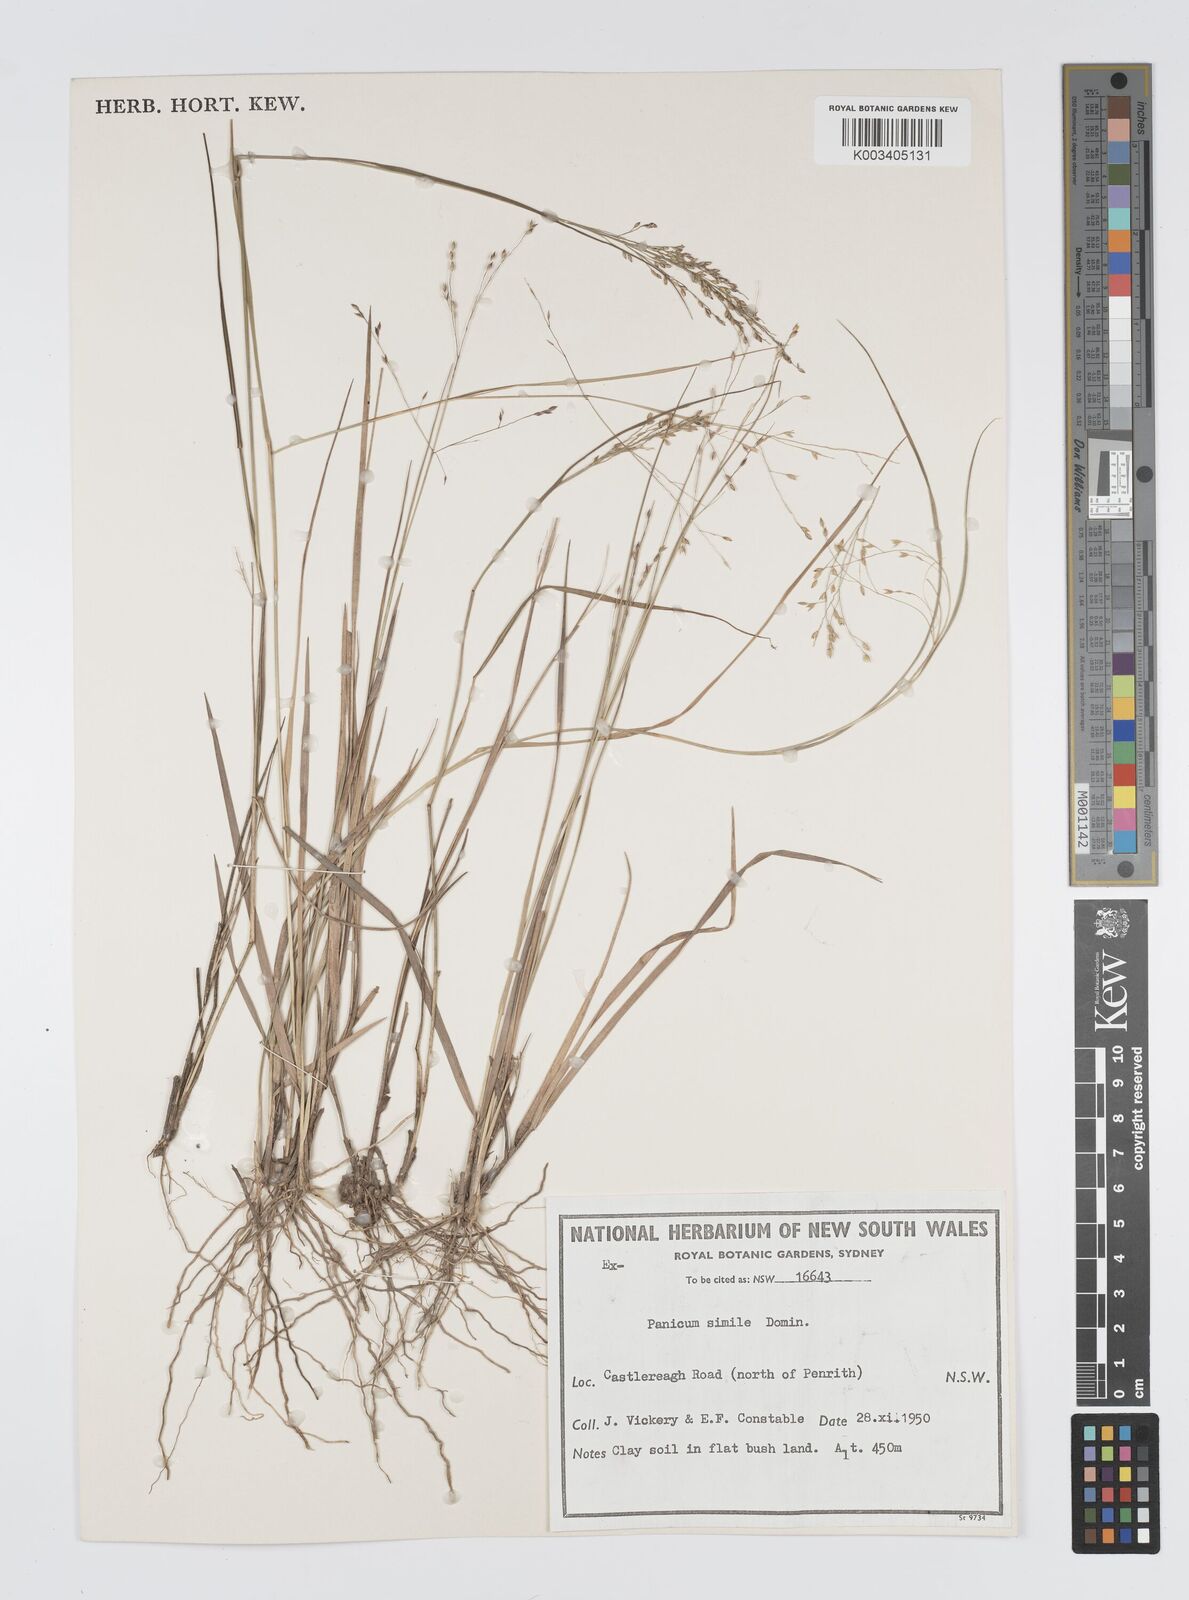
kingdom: Plantae
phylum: Tracheophyta
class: Liliopsida
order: Poales
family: Poaceae
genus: Panicum
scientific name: Panicum simile
